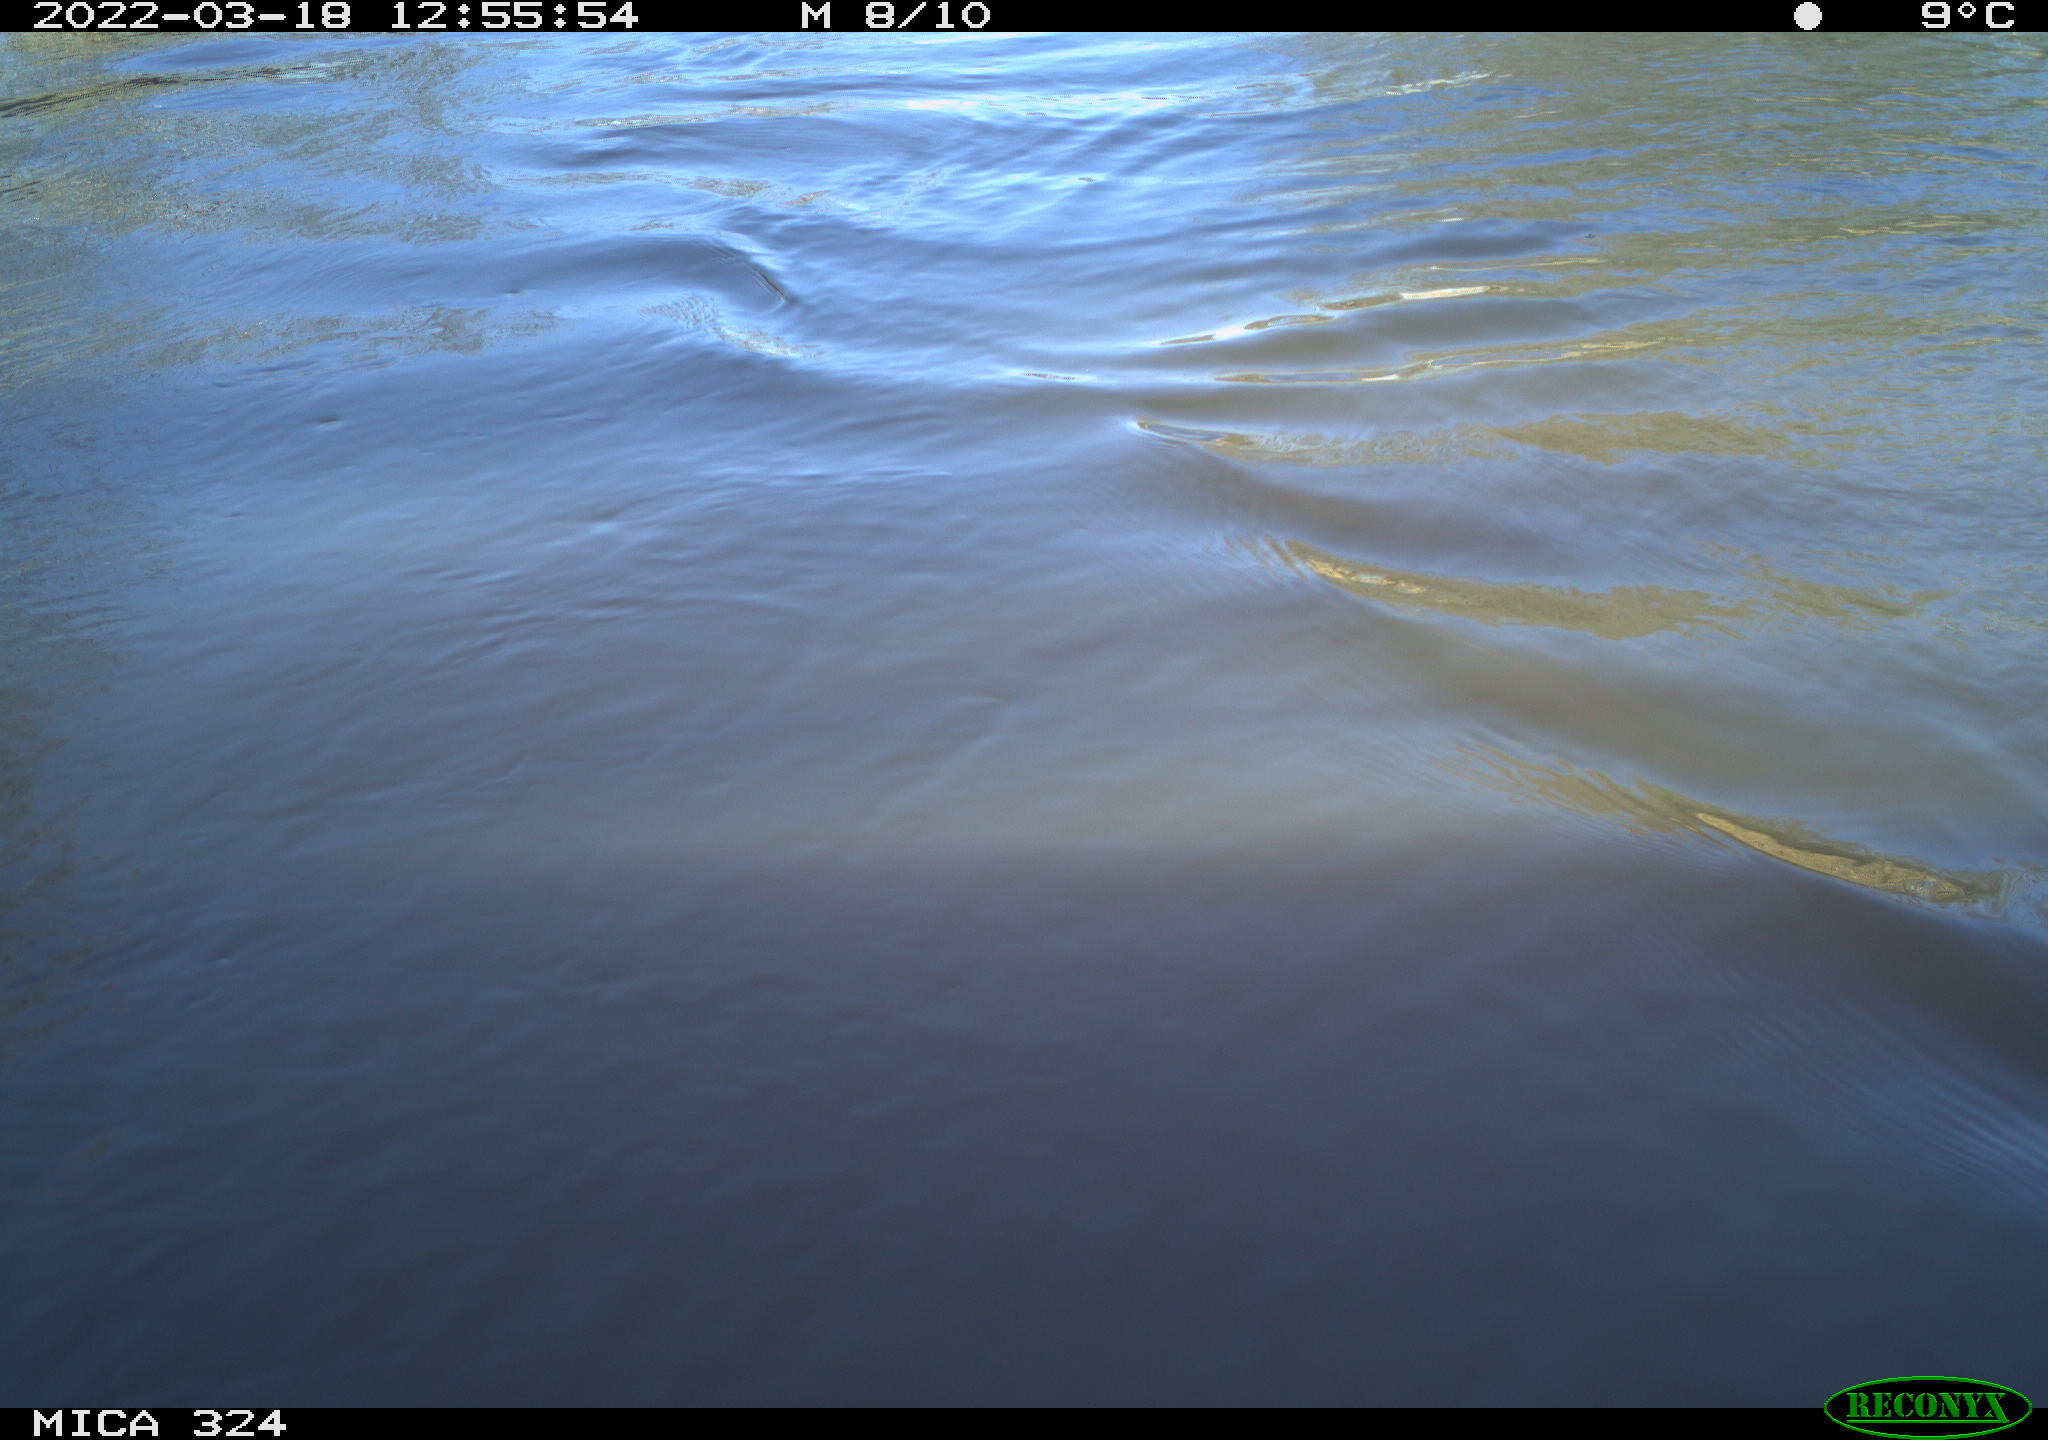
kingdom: Animalia
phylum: Chordata
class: Aves
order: Anseriformes
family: Anatidae
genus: Anas
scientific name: Anas platyrhynchos
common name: Mallard
